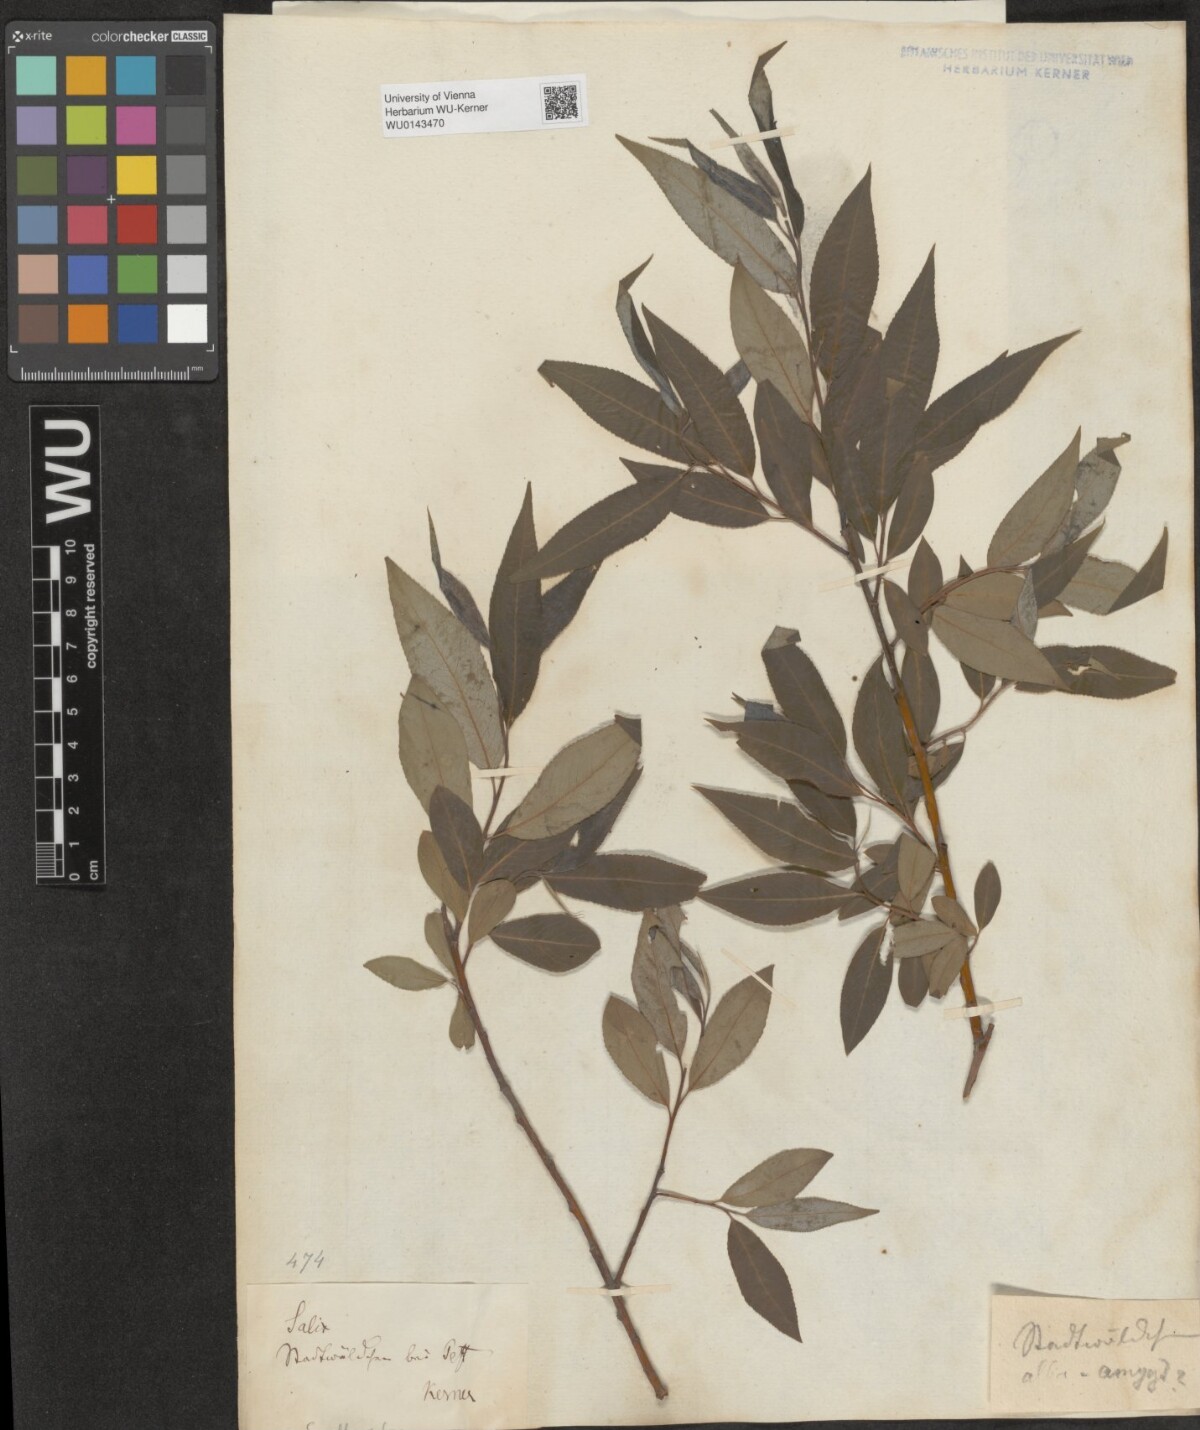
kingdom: Plantae
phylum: Tracheophyta
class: Magnoliopsida
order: Malpighiales
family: Salicaceae
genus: Salix
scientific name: Salix subtriandra
